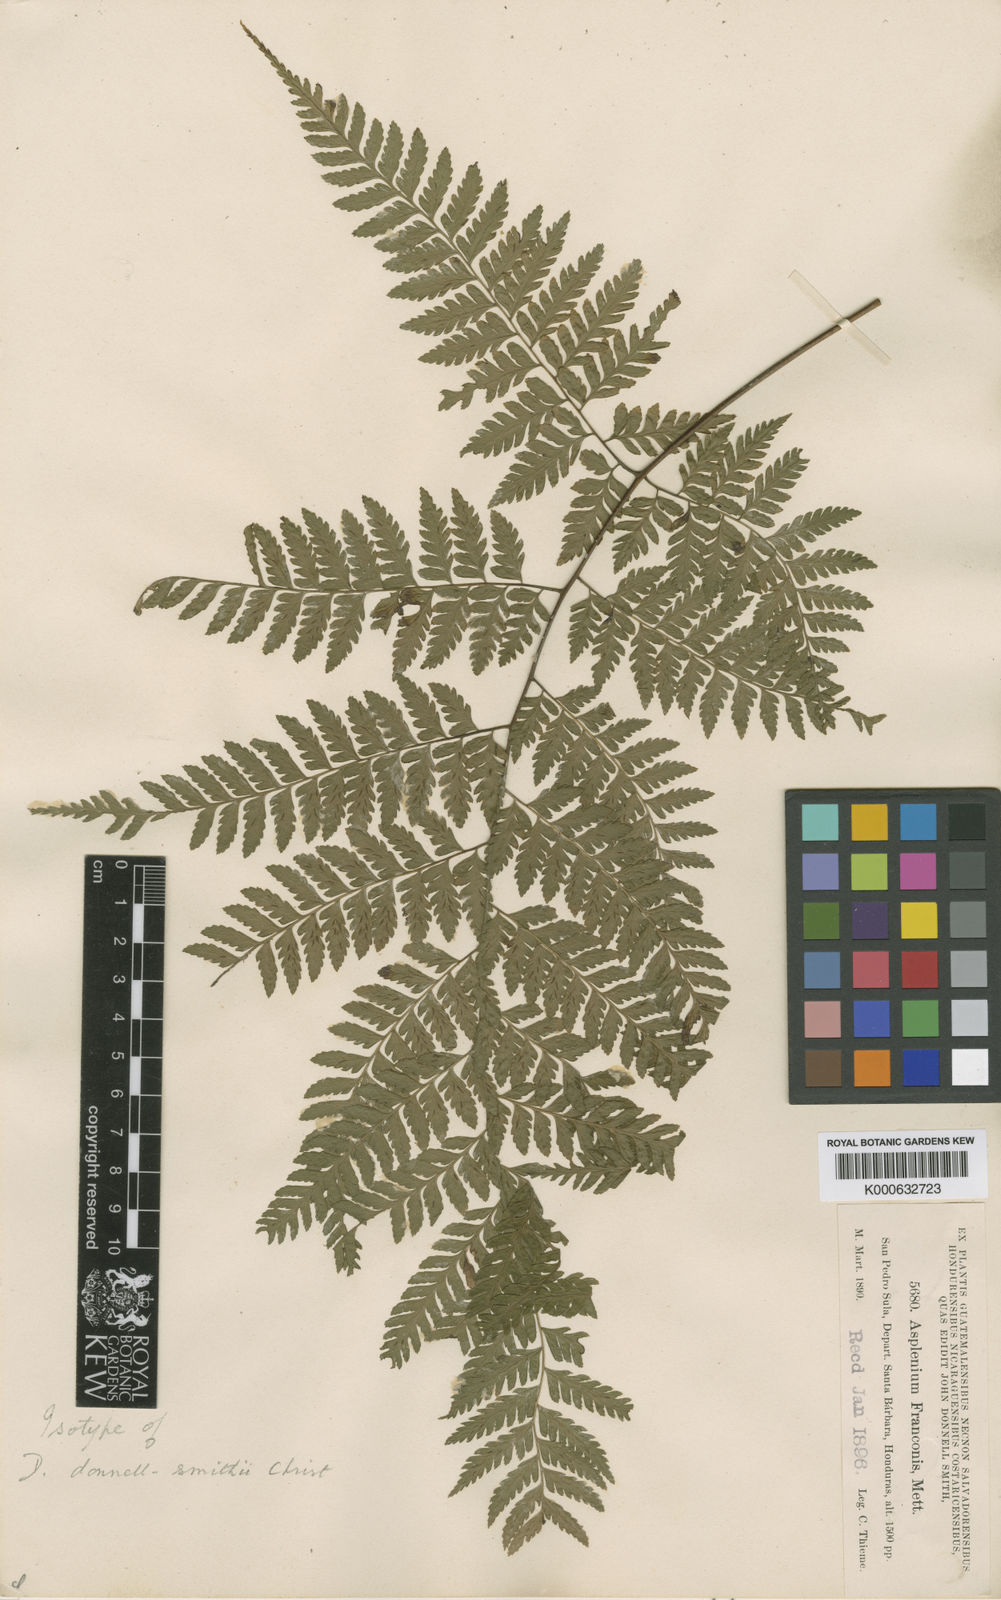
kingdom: Plantae
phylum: Tracheophyta
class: Polypodiopsida
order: Polypodiales
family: Athyriaceae
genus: Diplazium
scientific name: Diplazium donnell-smithii
